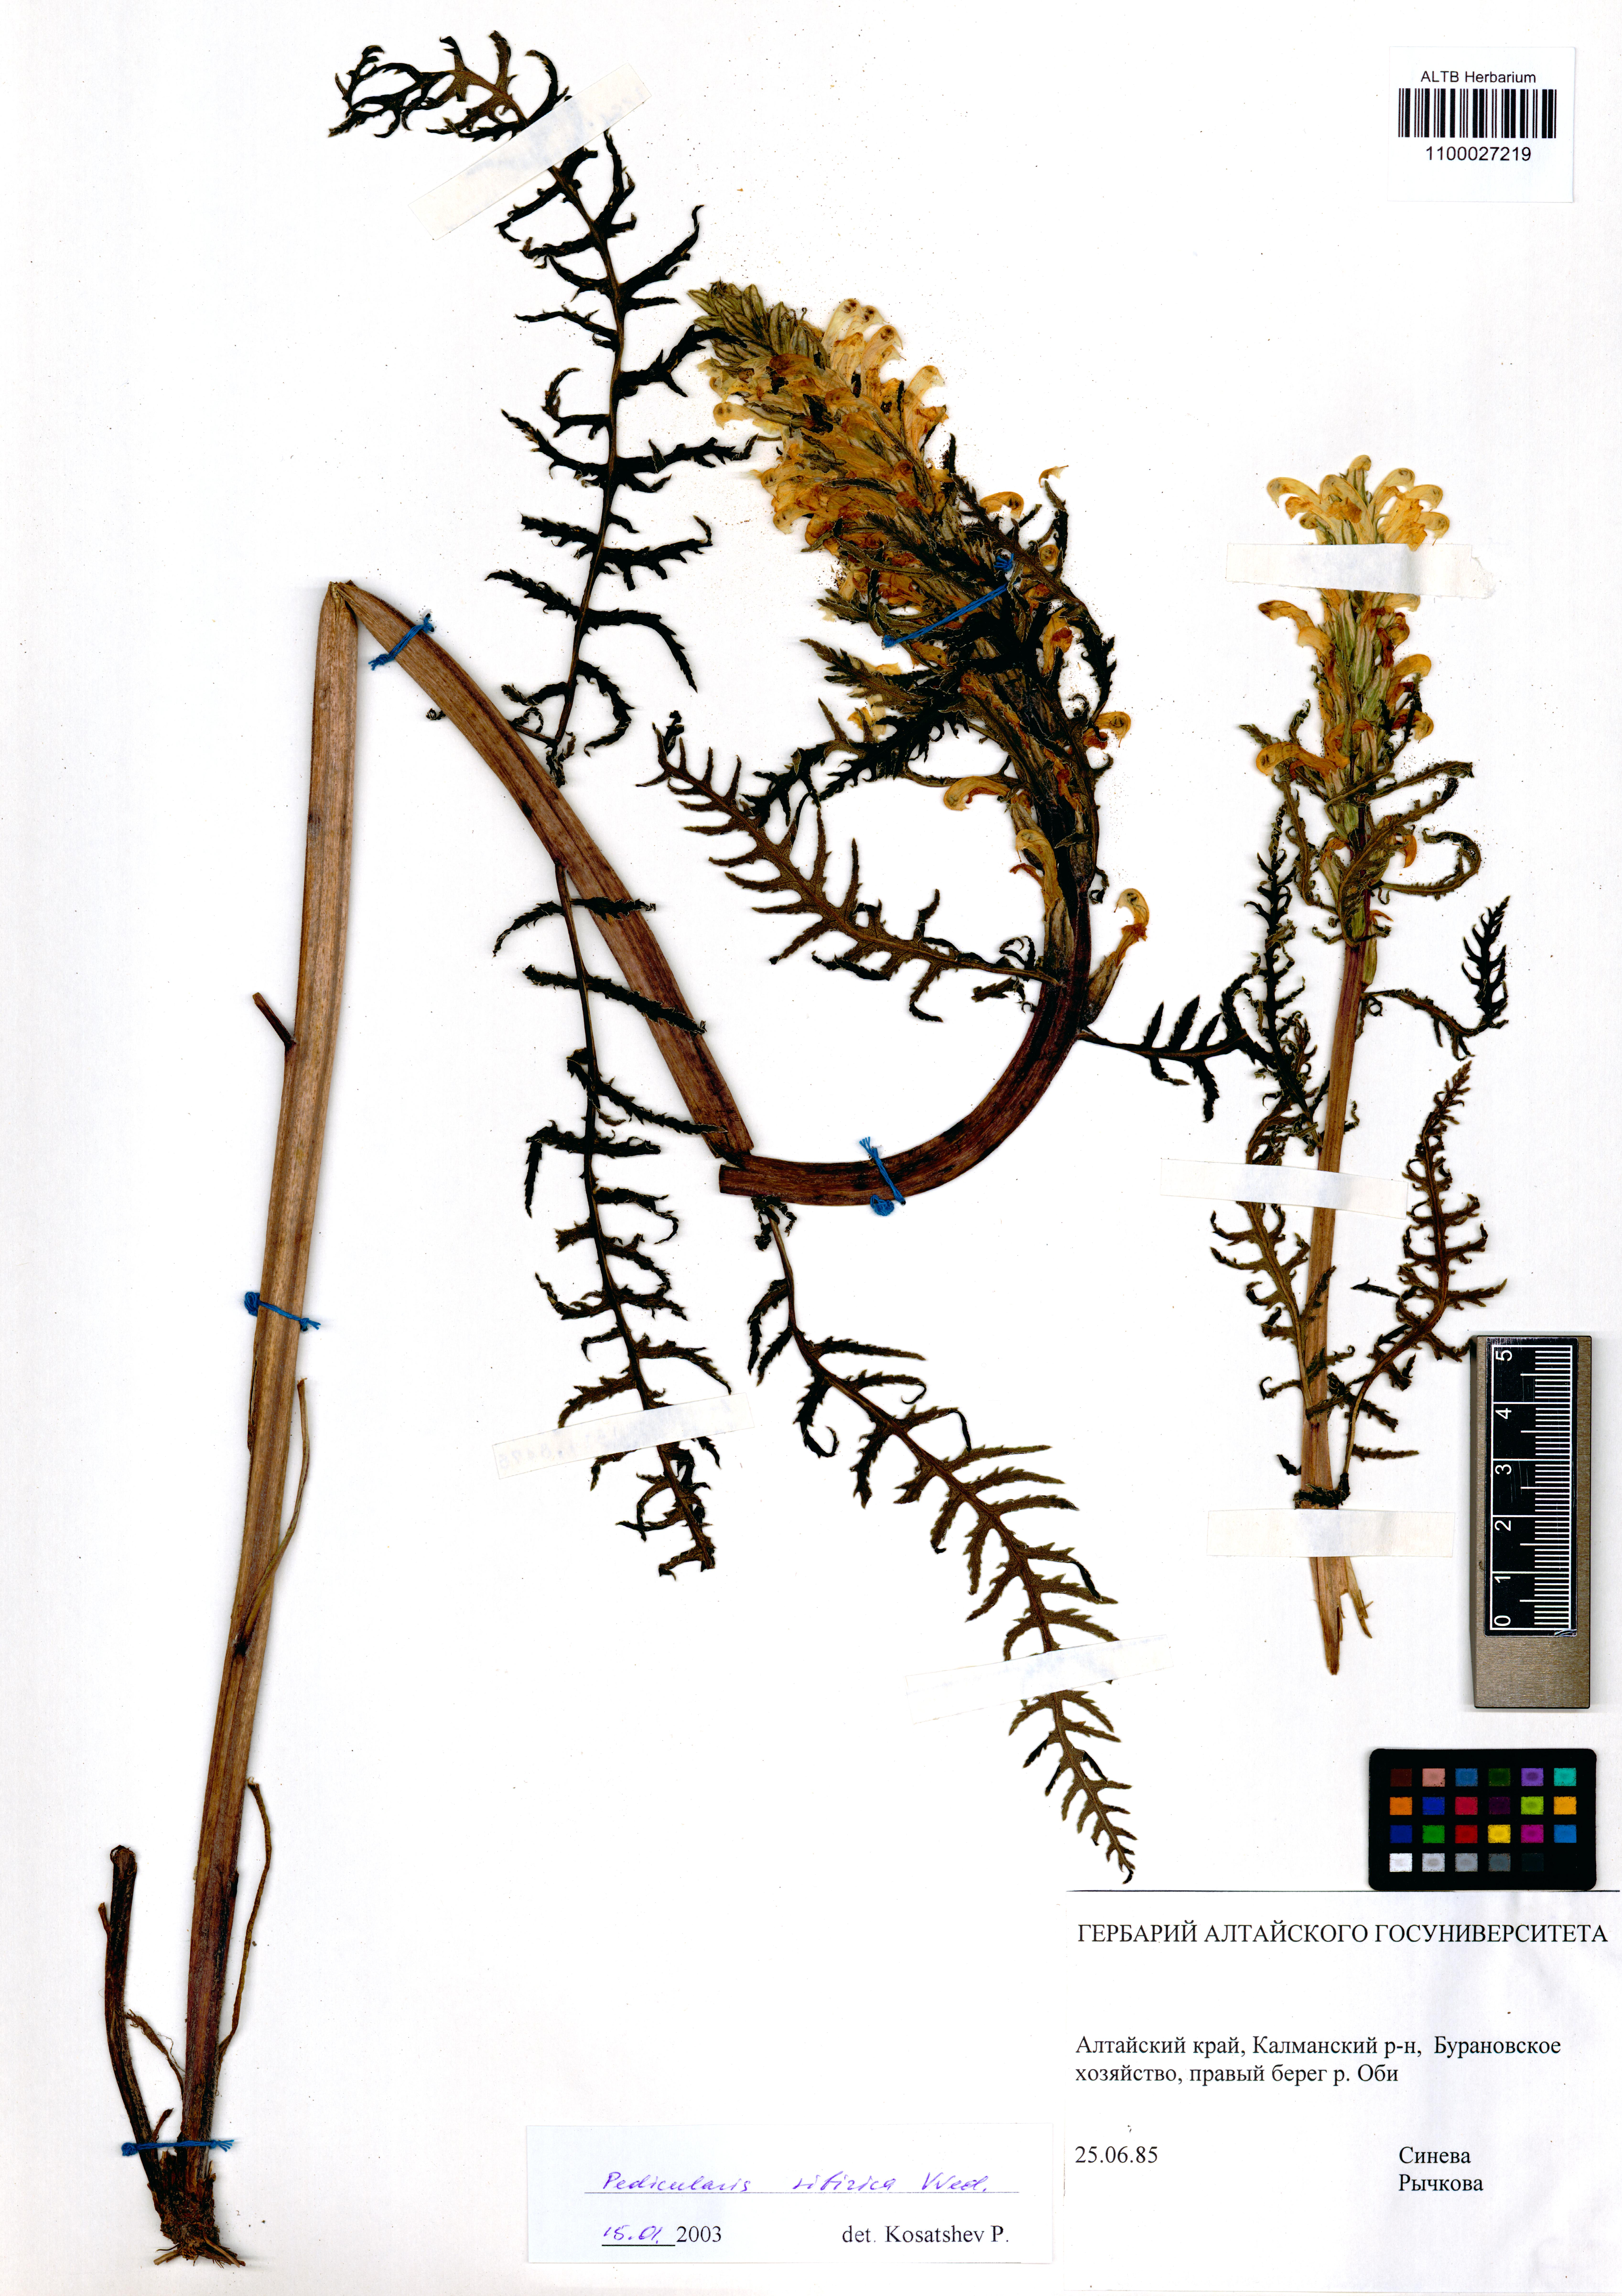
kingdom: Plantae
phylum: Tracheophyta
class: Magnoliopsida
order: Lamiales
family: Orobanchaceae
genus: Pedicularis
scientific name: Pedicularis sibirica
